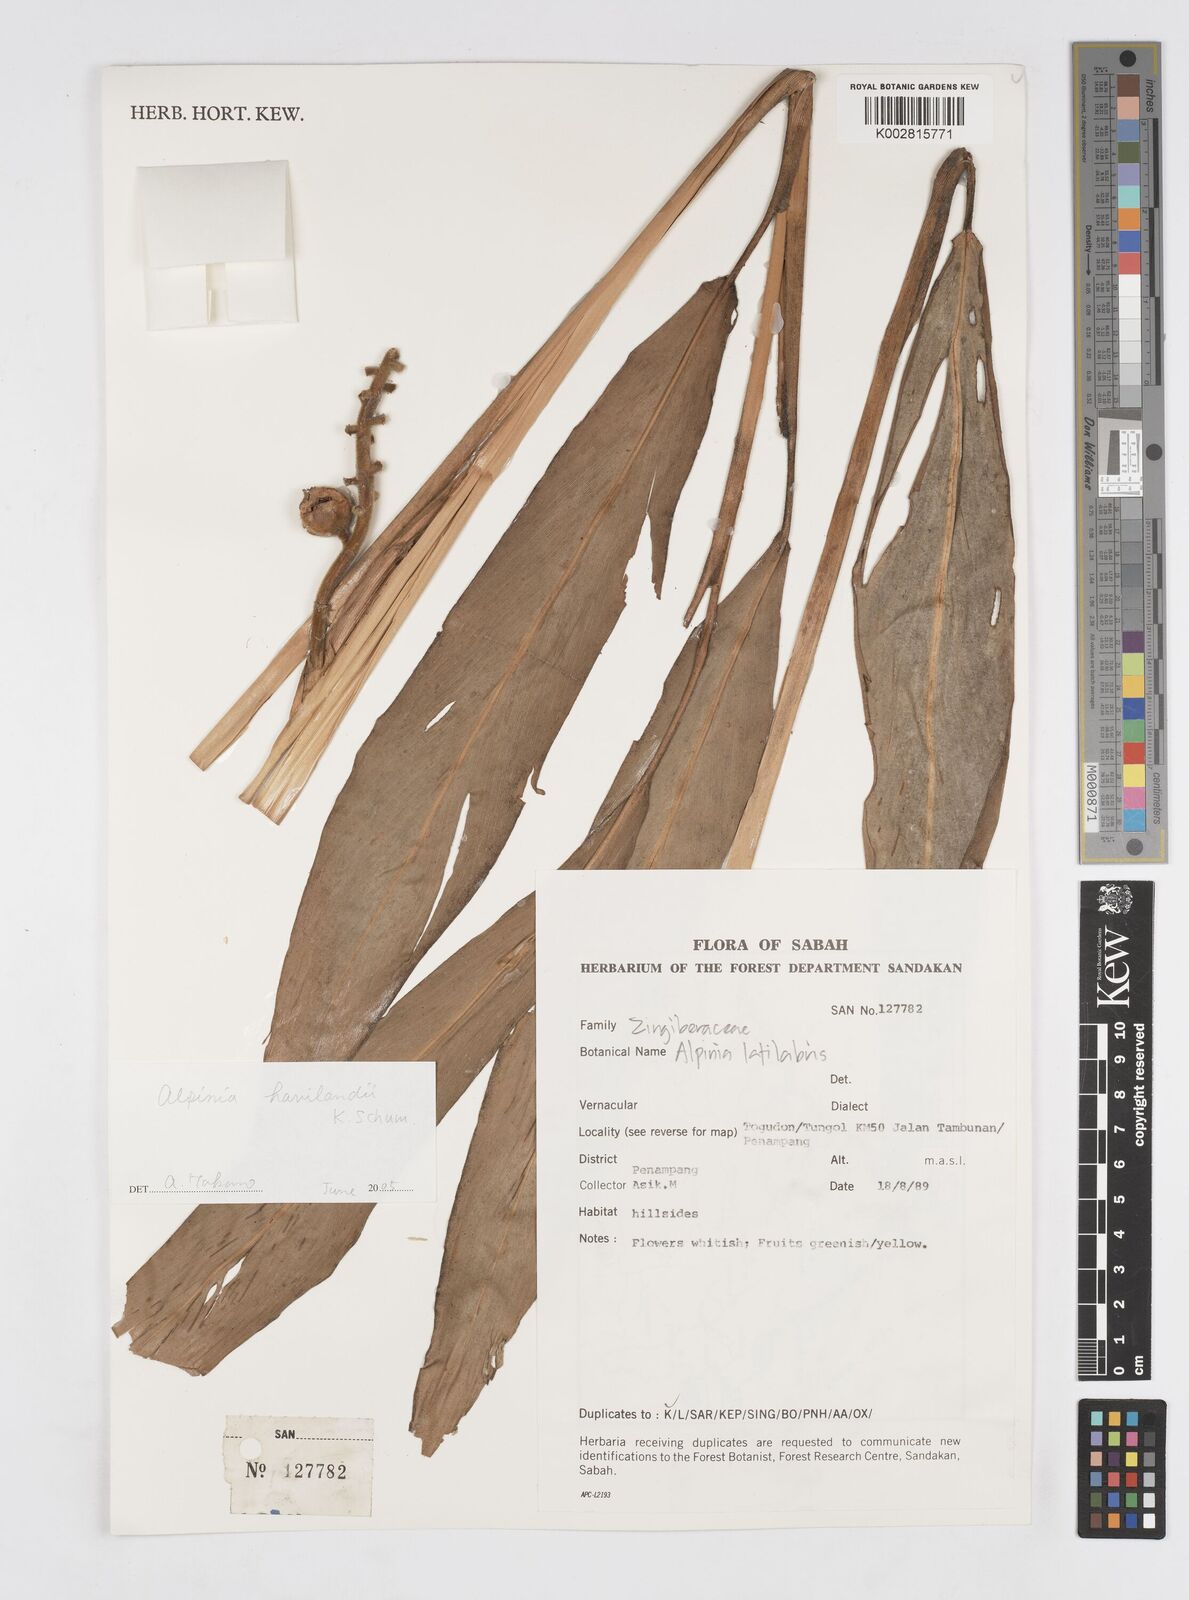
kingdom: Plantae
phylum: Tracheophyta
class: Liliopsida
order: Zingiberales
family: Zingiberaceae
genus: Alpinia
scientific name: Alpinia havilandii
